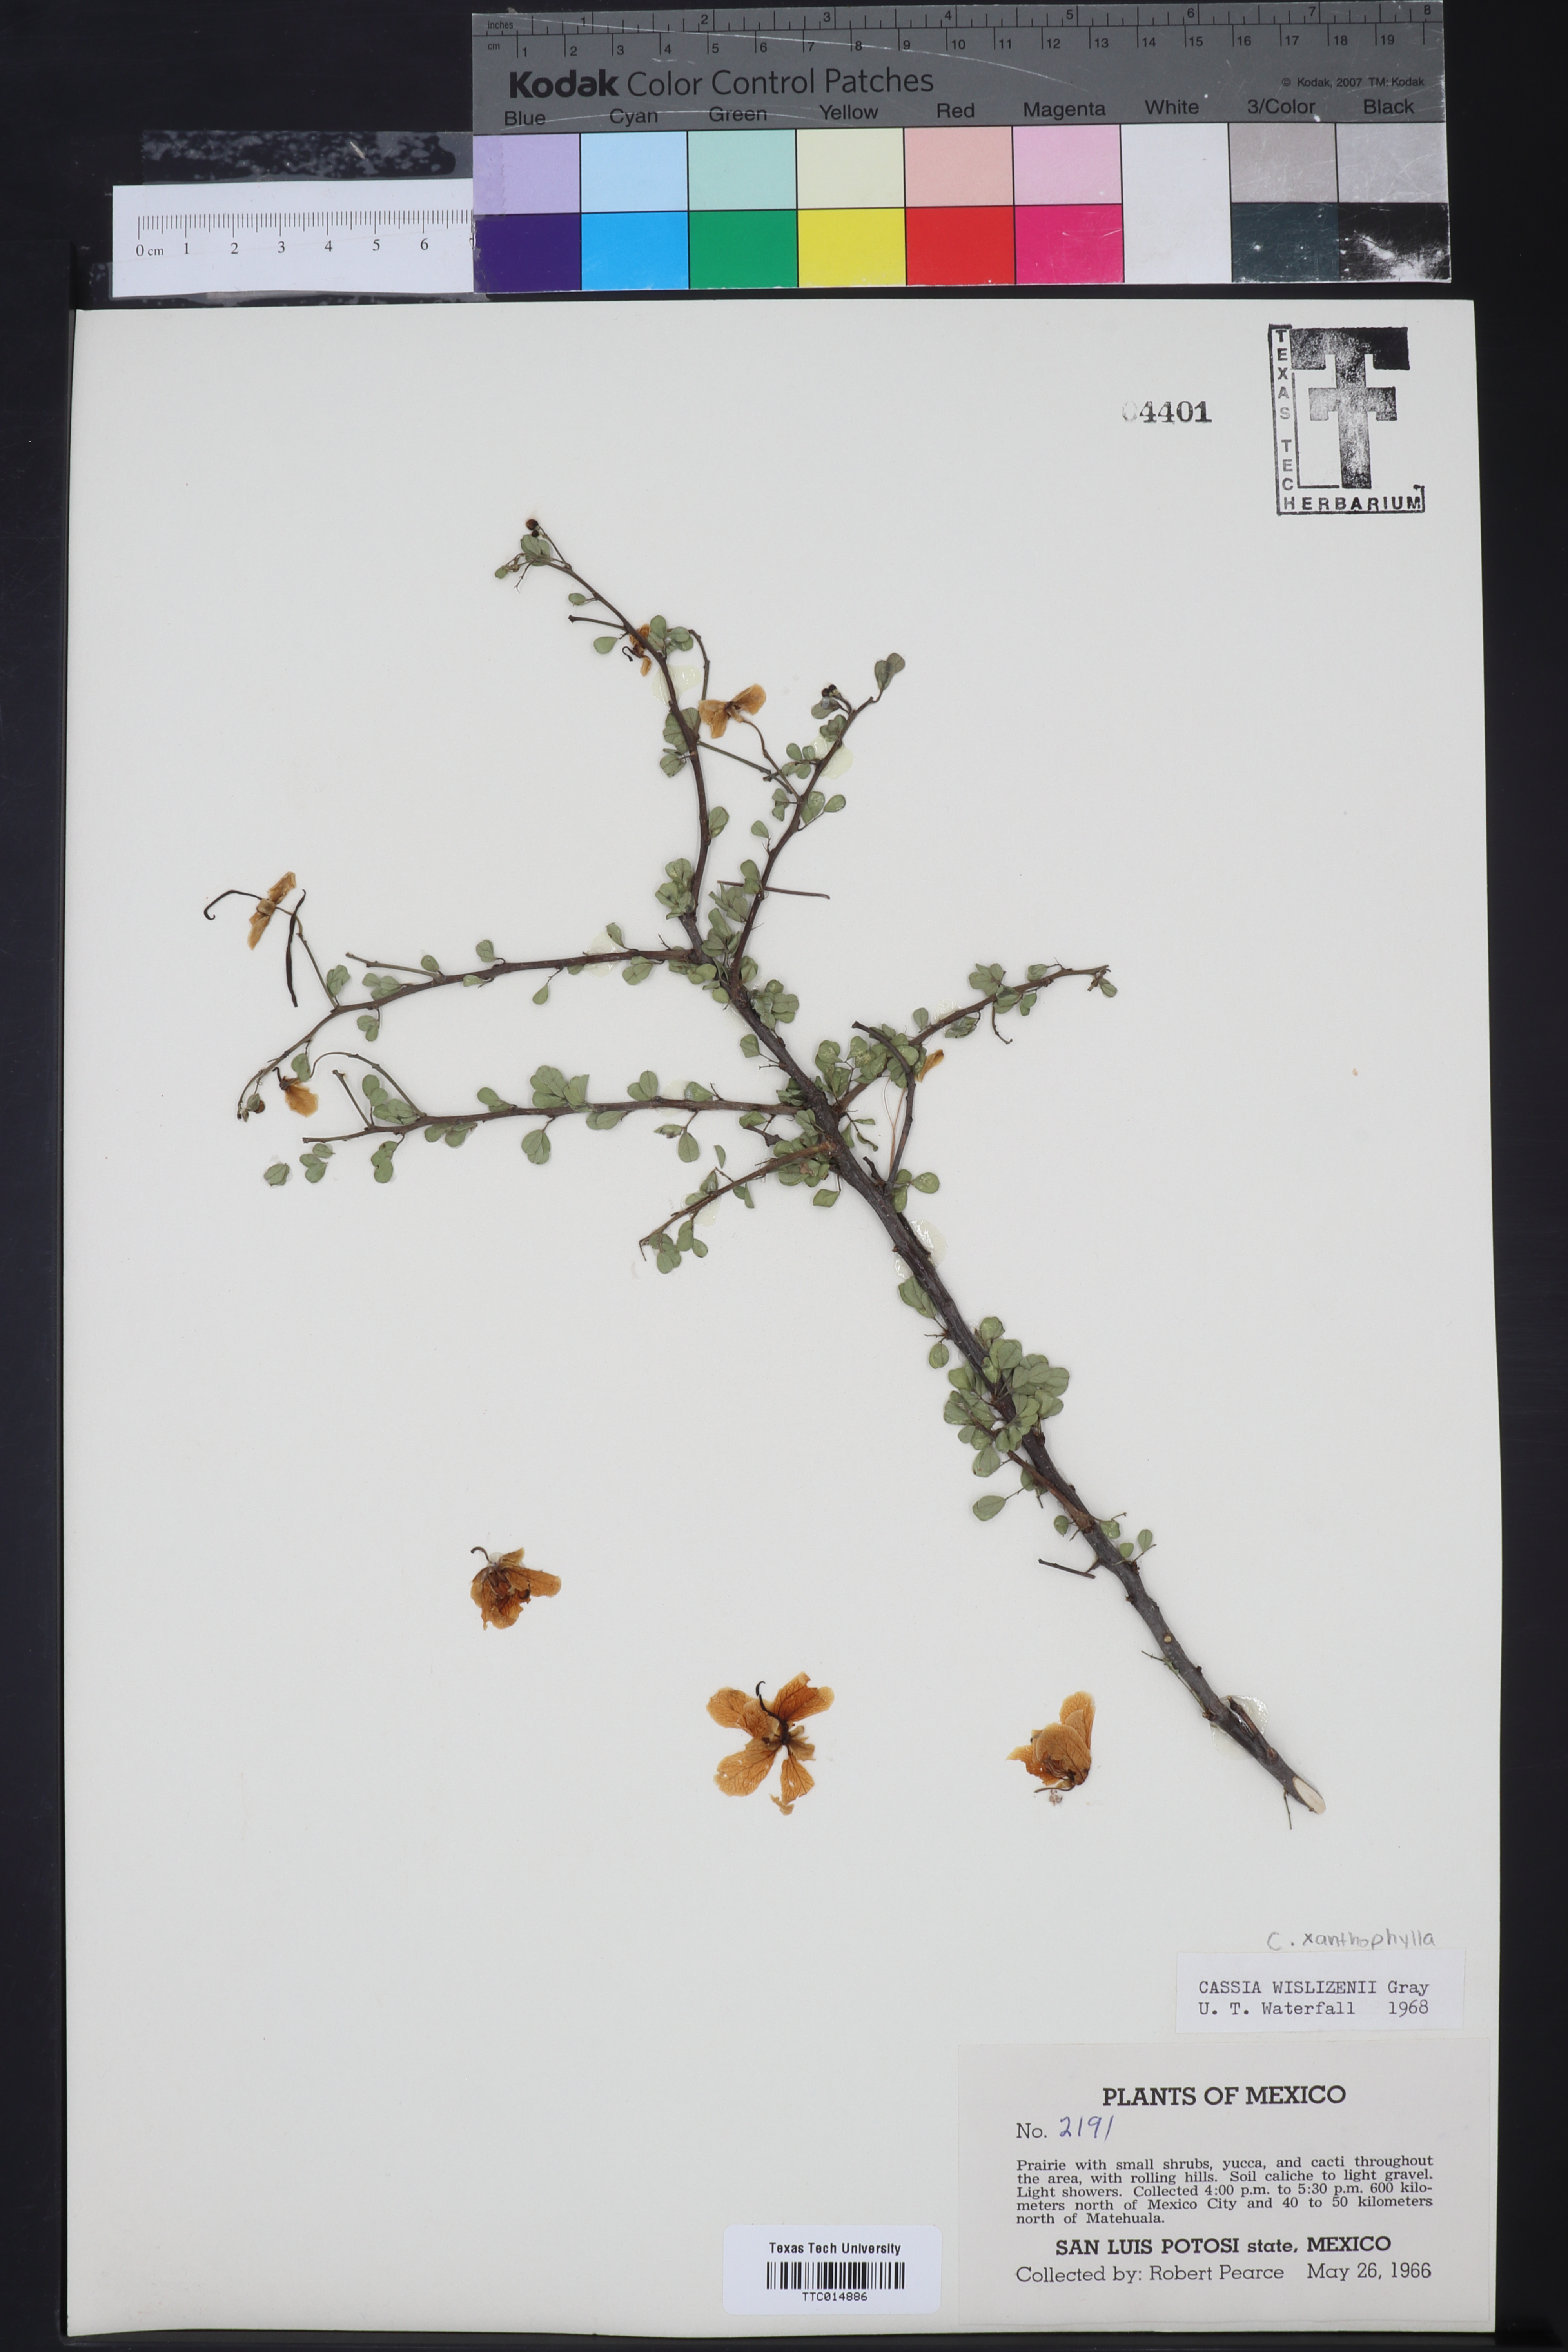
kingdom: Plantae
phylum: Tracheophyta
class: Magnoliopsida
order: Fabales
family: Fabaceae
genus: Senna
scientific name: Senna wislizeni
